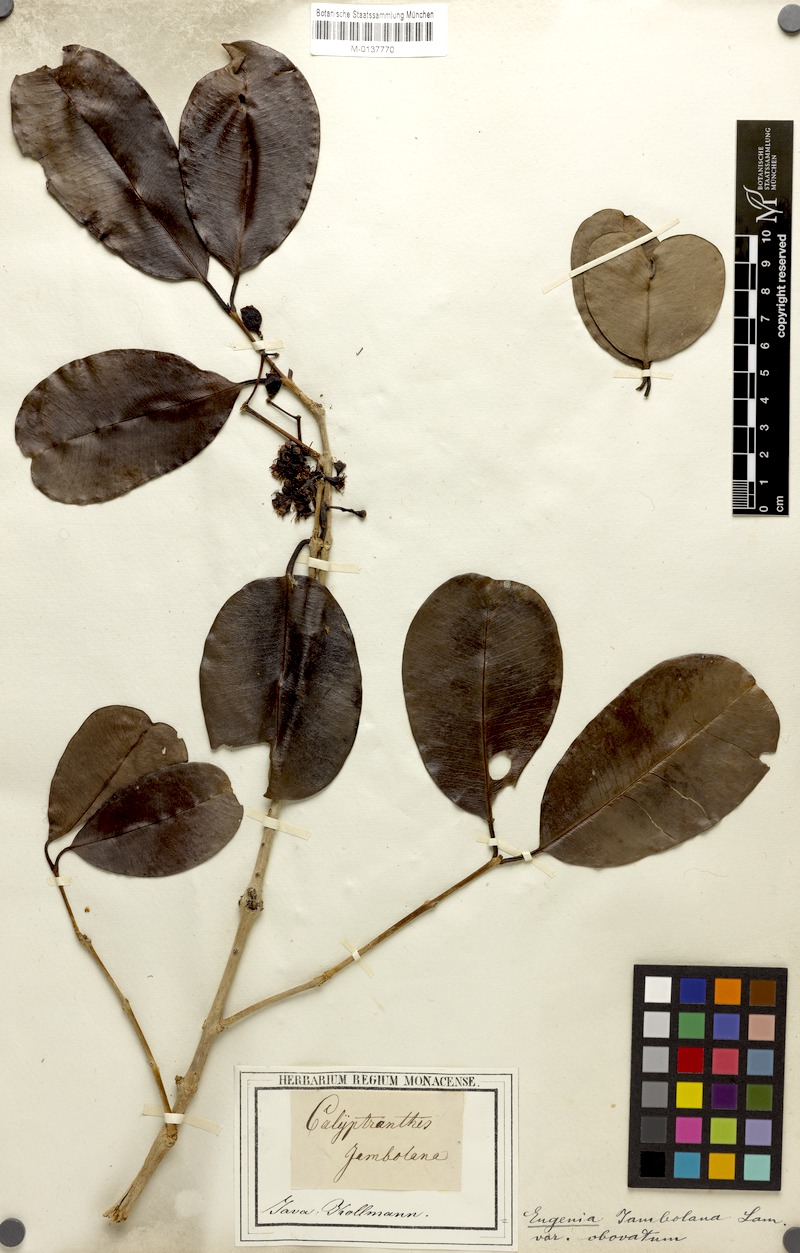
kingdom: Plantae
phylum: Tracheophyta
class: Magnoliopsida
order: Myrtales
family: Myrtaceae
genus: Syzygium
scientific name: Syzygium cumini
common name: Java plum
